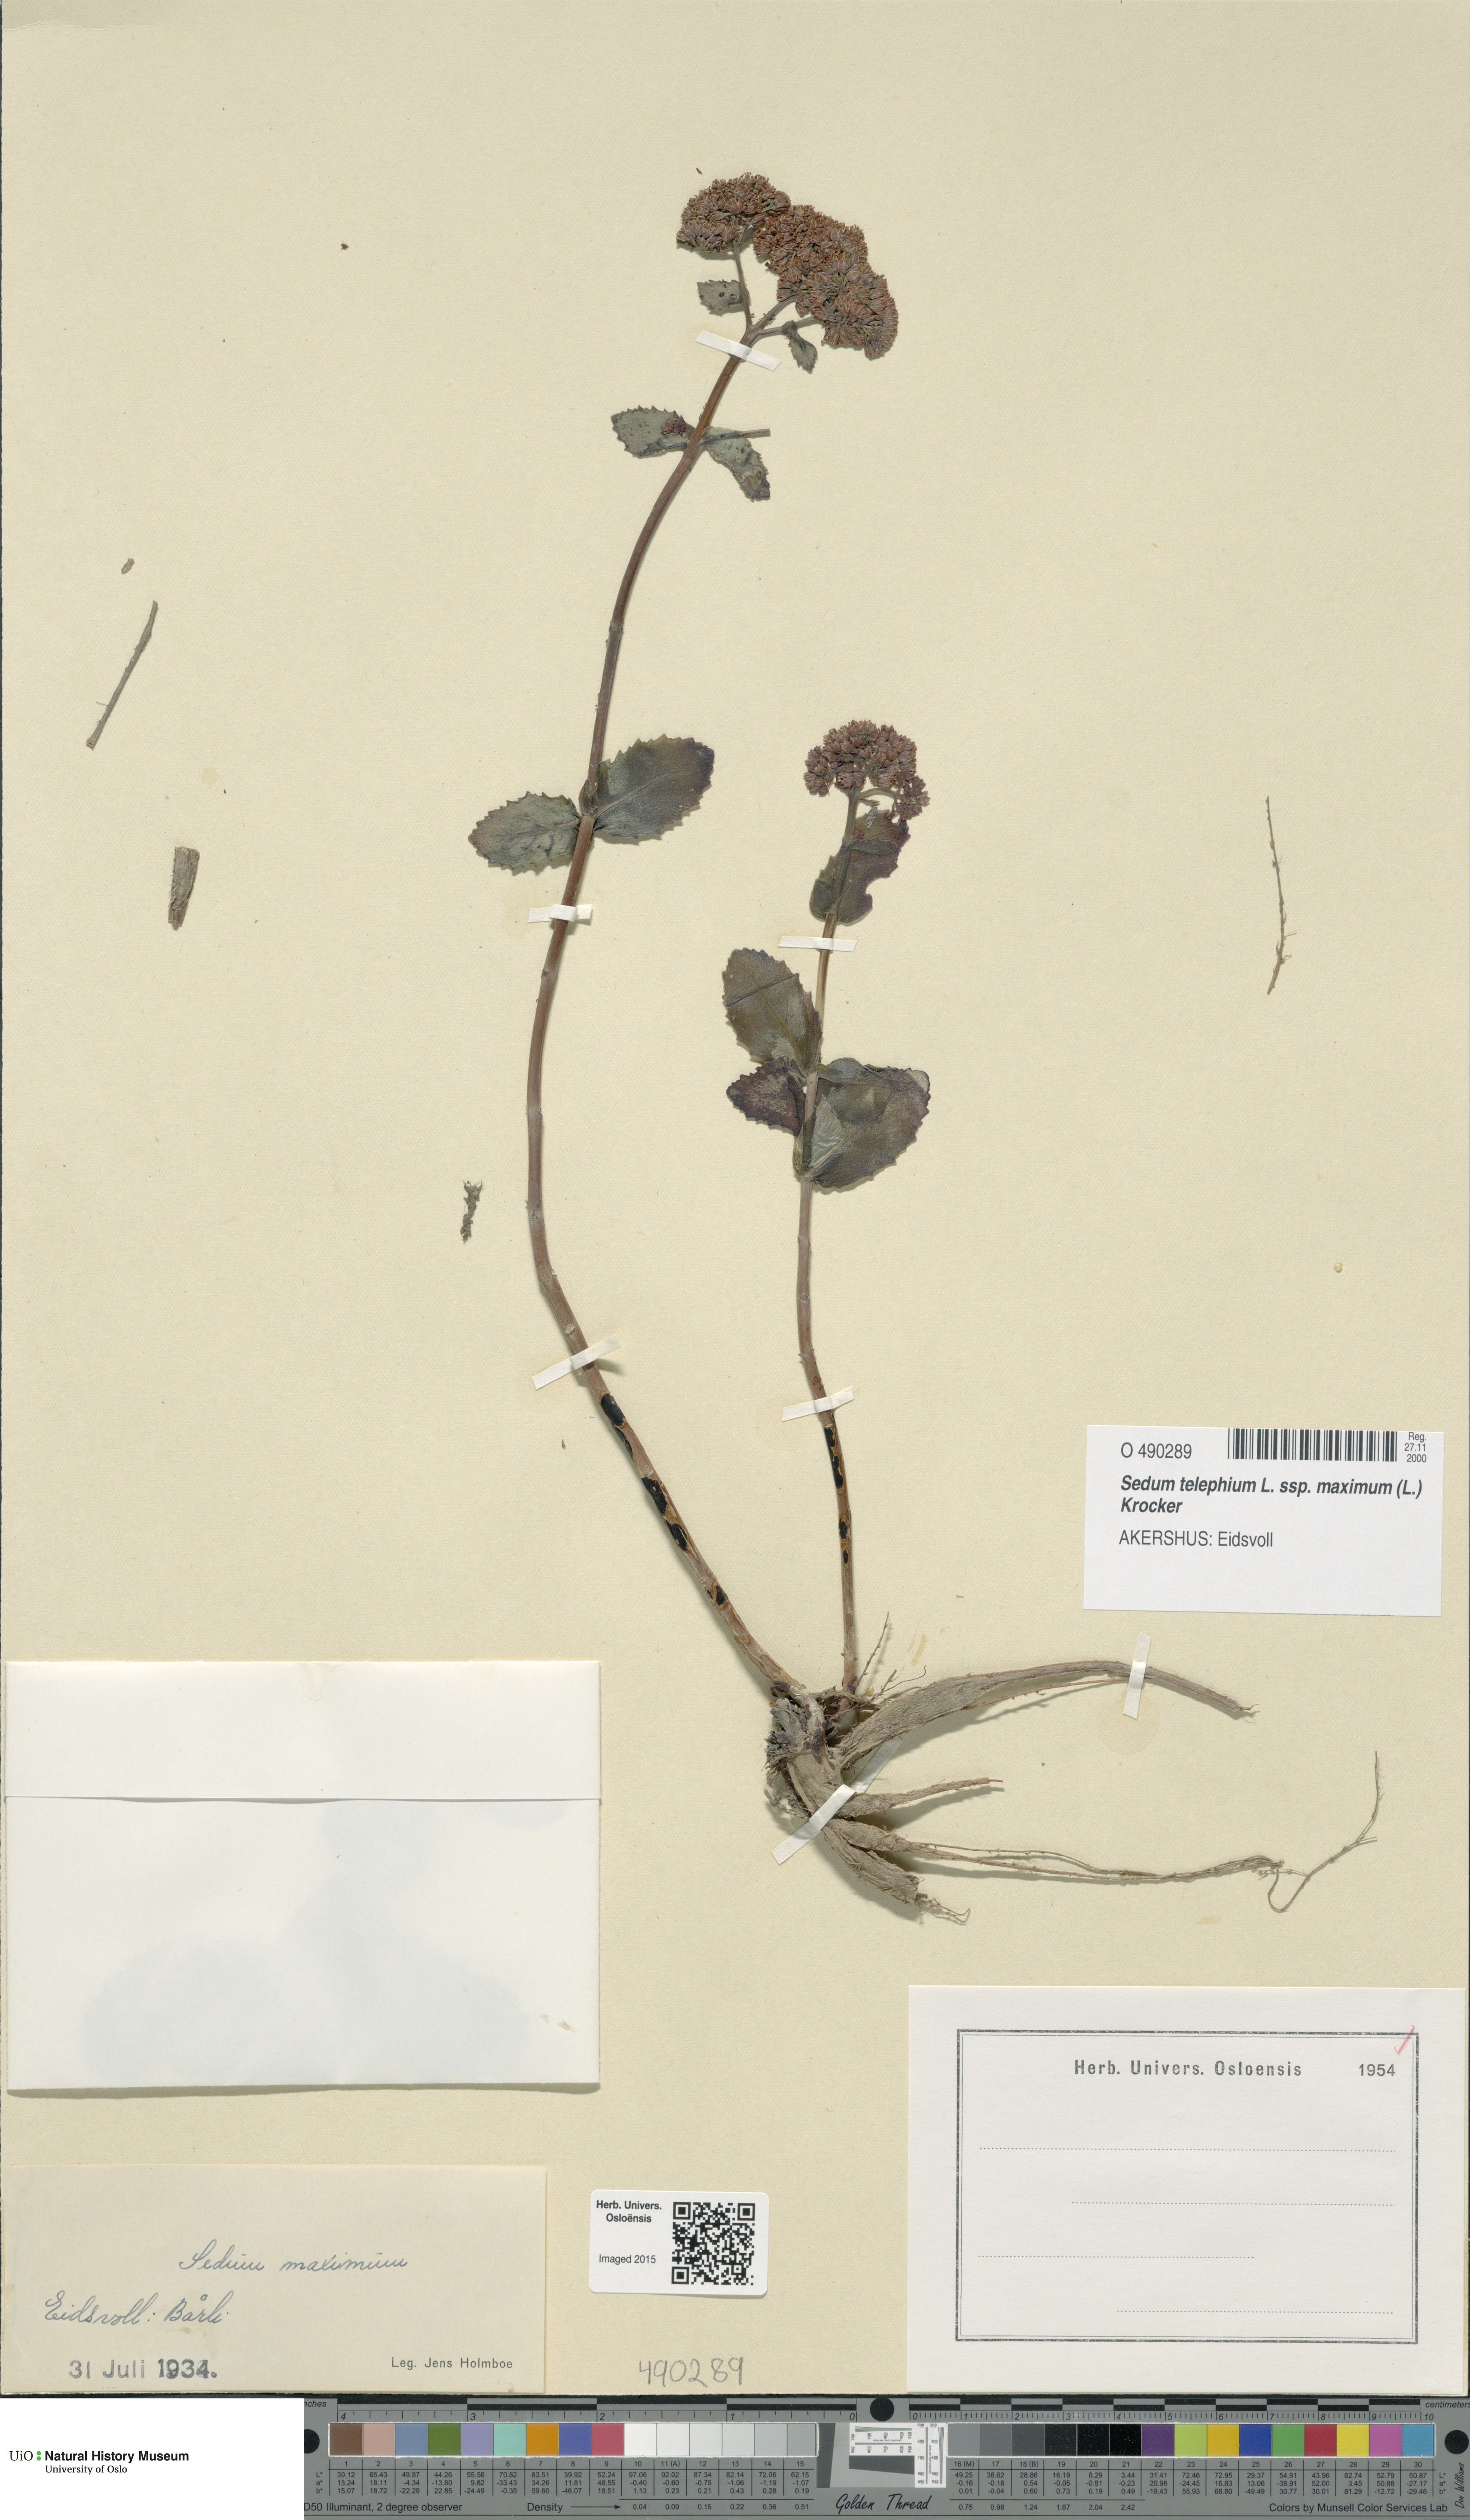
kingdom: Plantae
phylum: Tracheophyta
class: Magnoliopsida
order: Saxifragales
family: Crassulaceae
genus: Hylotelephium
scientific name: Hylotelephium maximum
